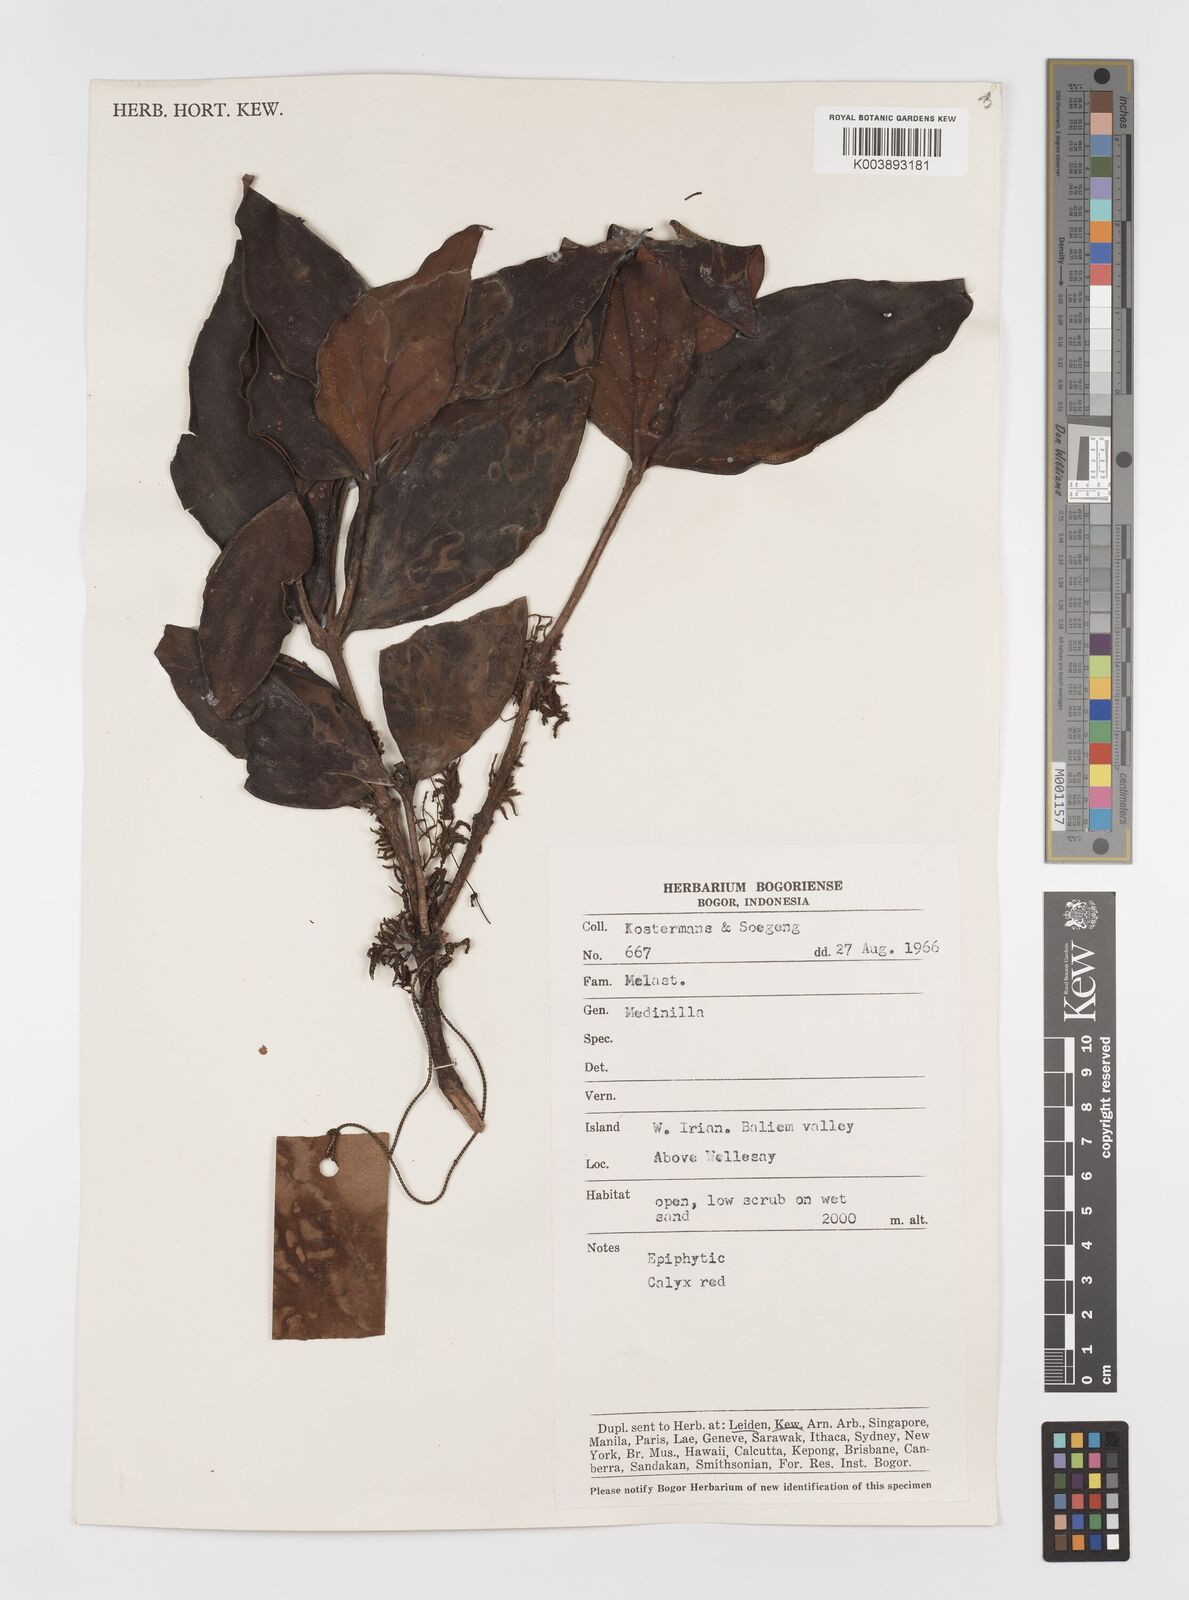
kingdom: Plantae
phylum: Tracheophyta
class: Magnoliopsida
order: Myrtales
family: Melastomataceae
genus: Medinilla
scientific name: Medinilla
